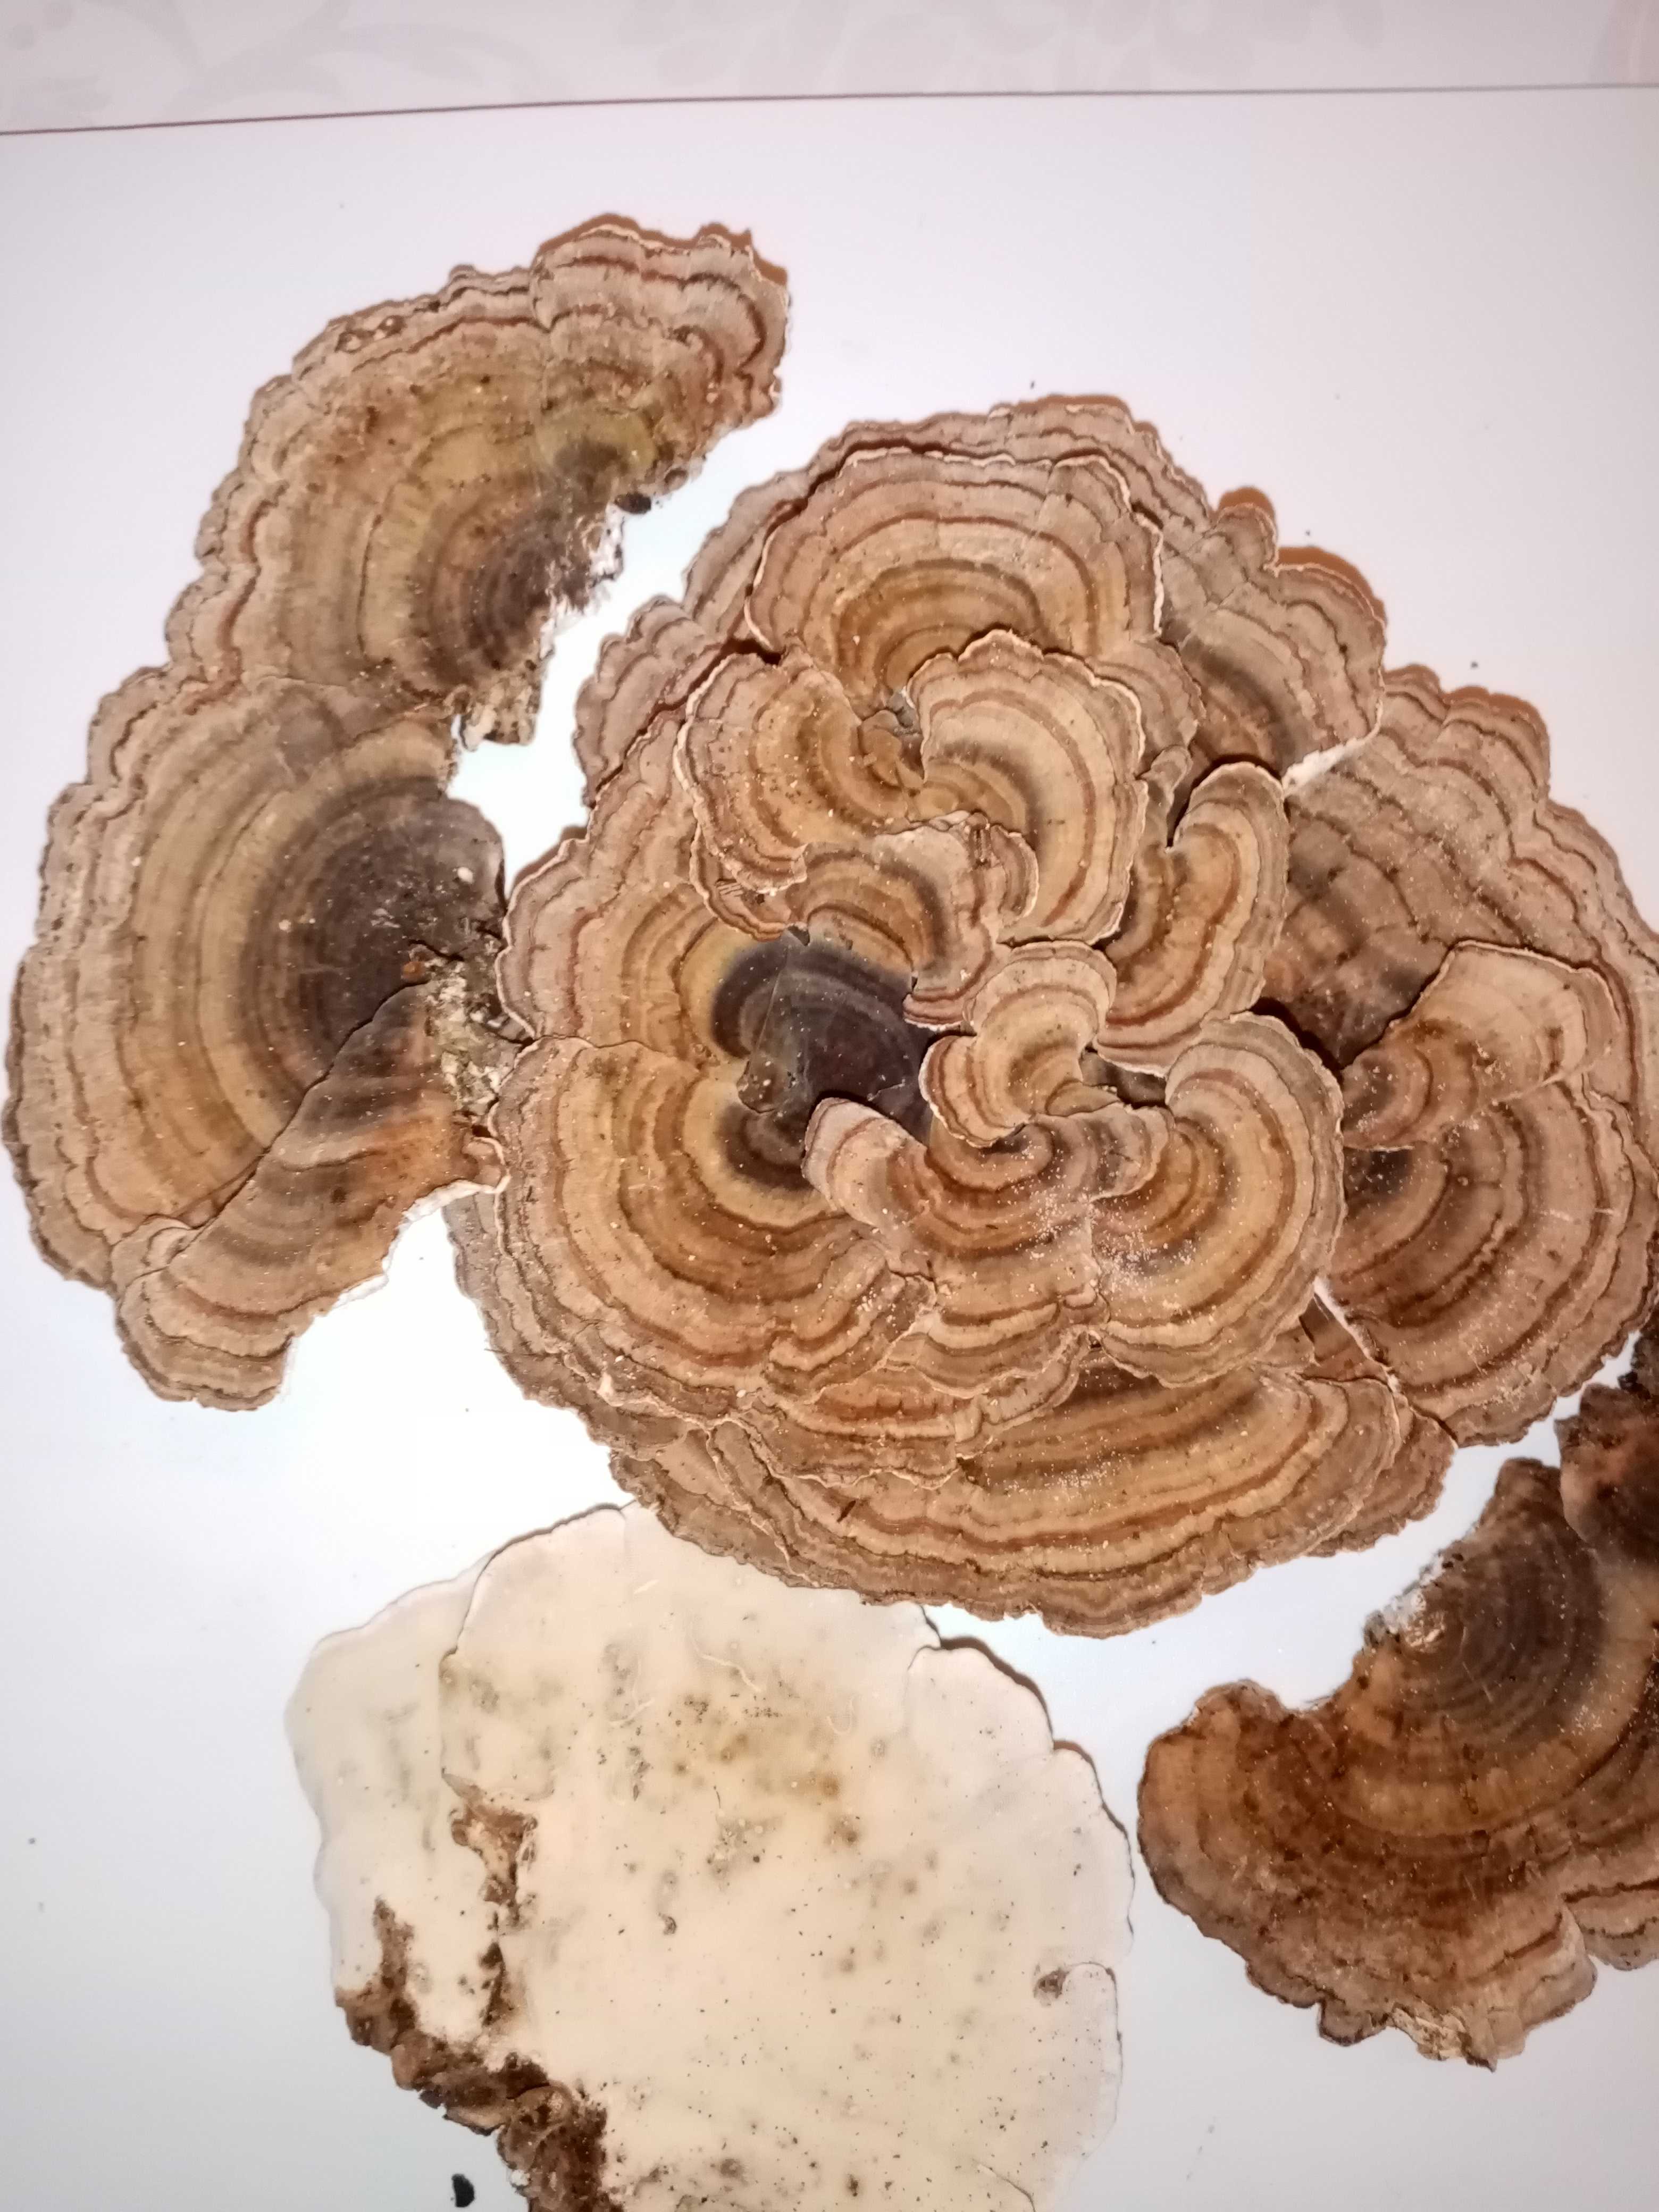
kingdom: Fungi
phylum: Basidiomycota
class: Agaricomycetes
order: Polyporales
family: Polyporaceae
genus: Trametes
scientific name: Trametes versicolor
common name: broget læderporesvamp
